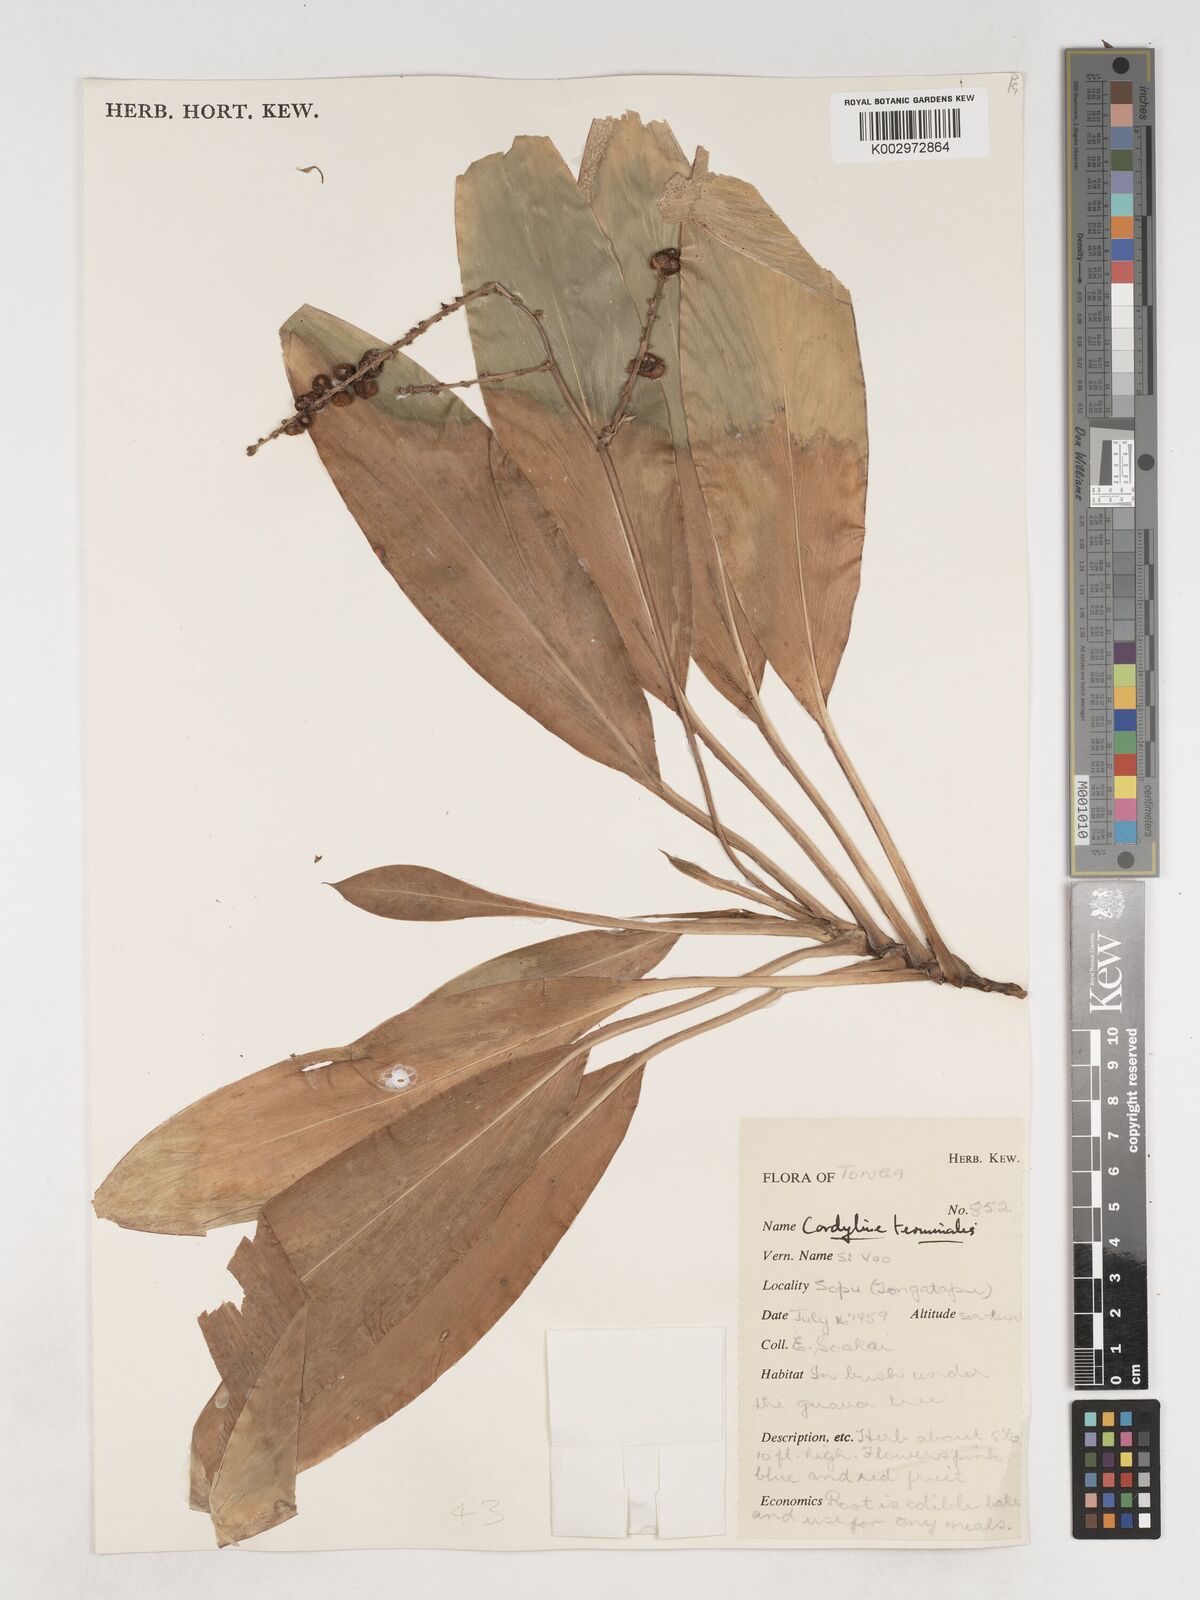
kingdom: Plantae
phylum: Tracheophyta
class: Liliopsida
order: Asparagales
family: Asparagaceae
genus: Cordyline
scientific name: Cordyline fruticosa
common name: Good-luck-plant
